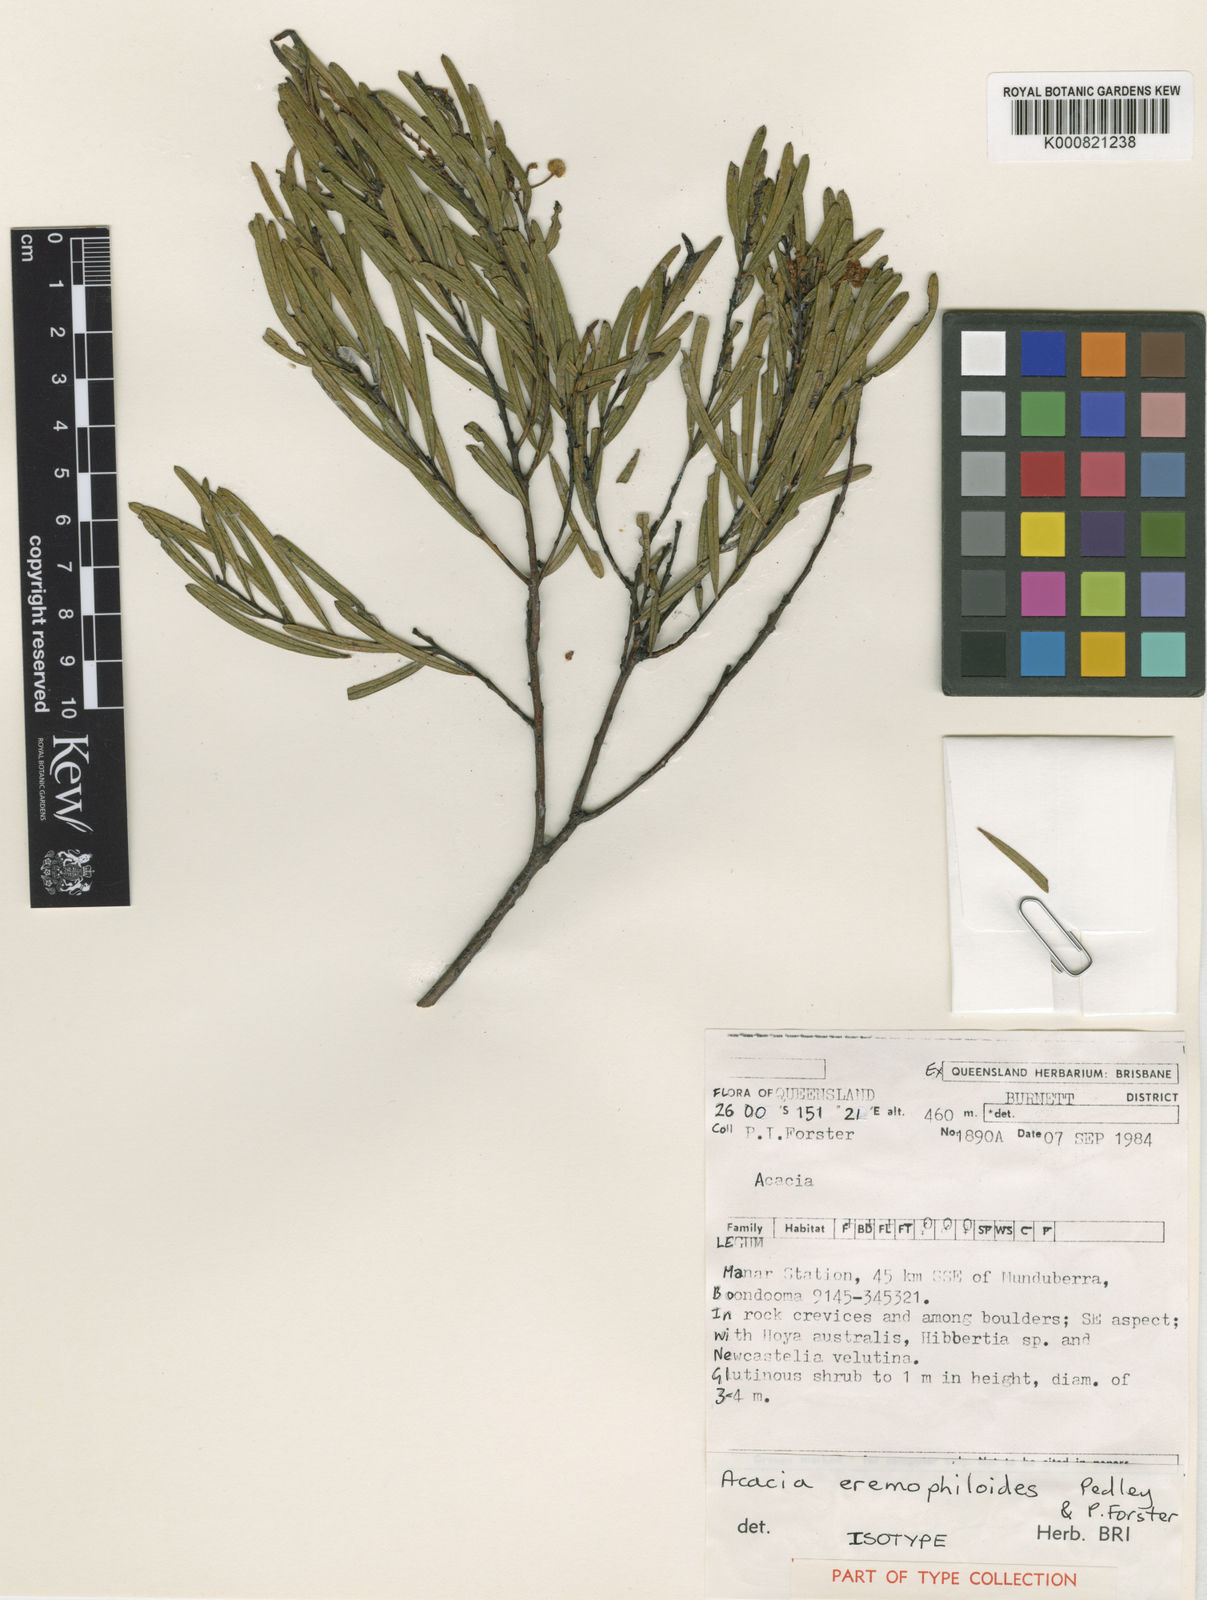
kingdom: Plantae
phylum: Tracheophyta
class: Magnoliopsida
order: Fabales
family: Fabaceae
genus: Acacia
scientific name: Acacia eremophiloides
